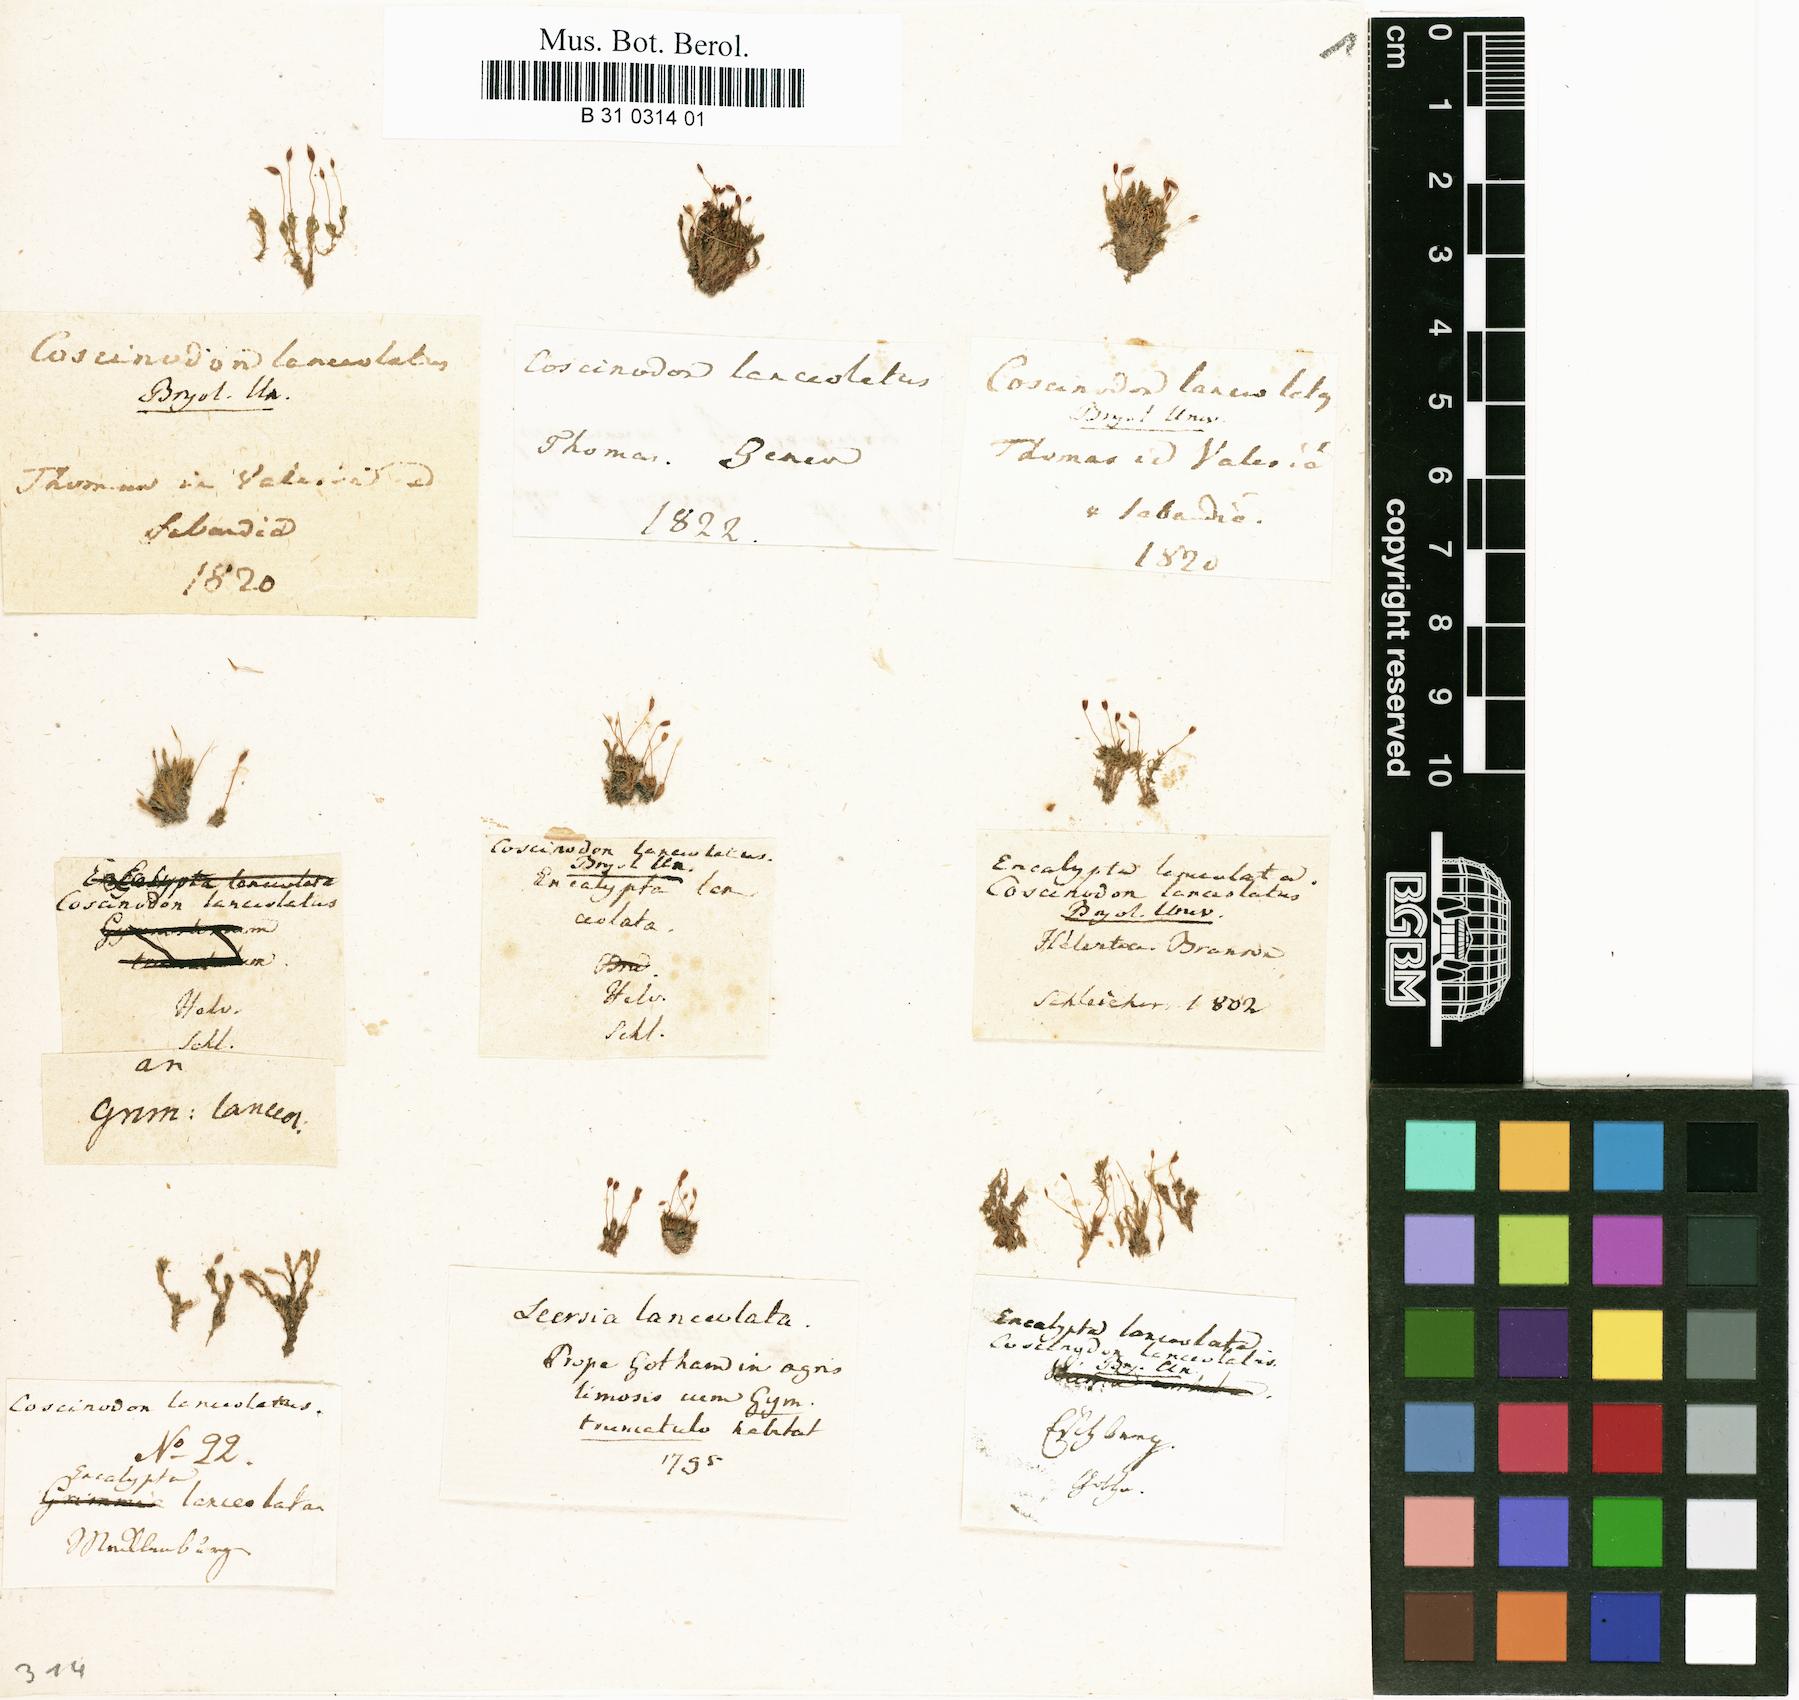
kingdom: Plantae
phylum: Bryophyta
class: Bryopsida
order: Pottiales
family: Pottiaceae
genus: Tortula
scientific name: Tortula lindbergii
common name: Lance-leaved pottia
